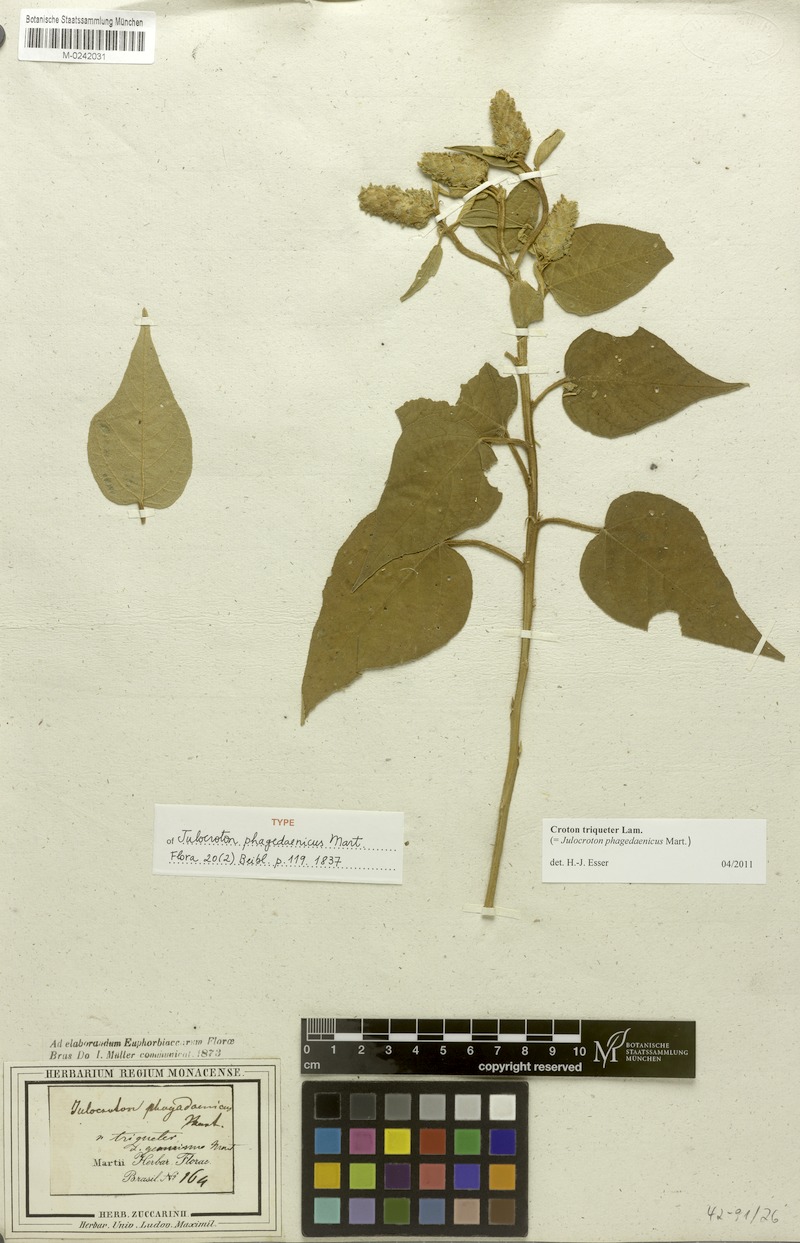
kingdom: Plantae
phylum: Tracheophyta
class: Magnoliopsida
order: Malpighiales
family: Euphorbiaceae
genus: Croton
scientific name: Croton triqueter
